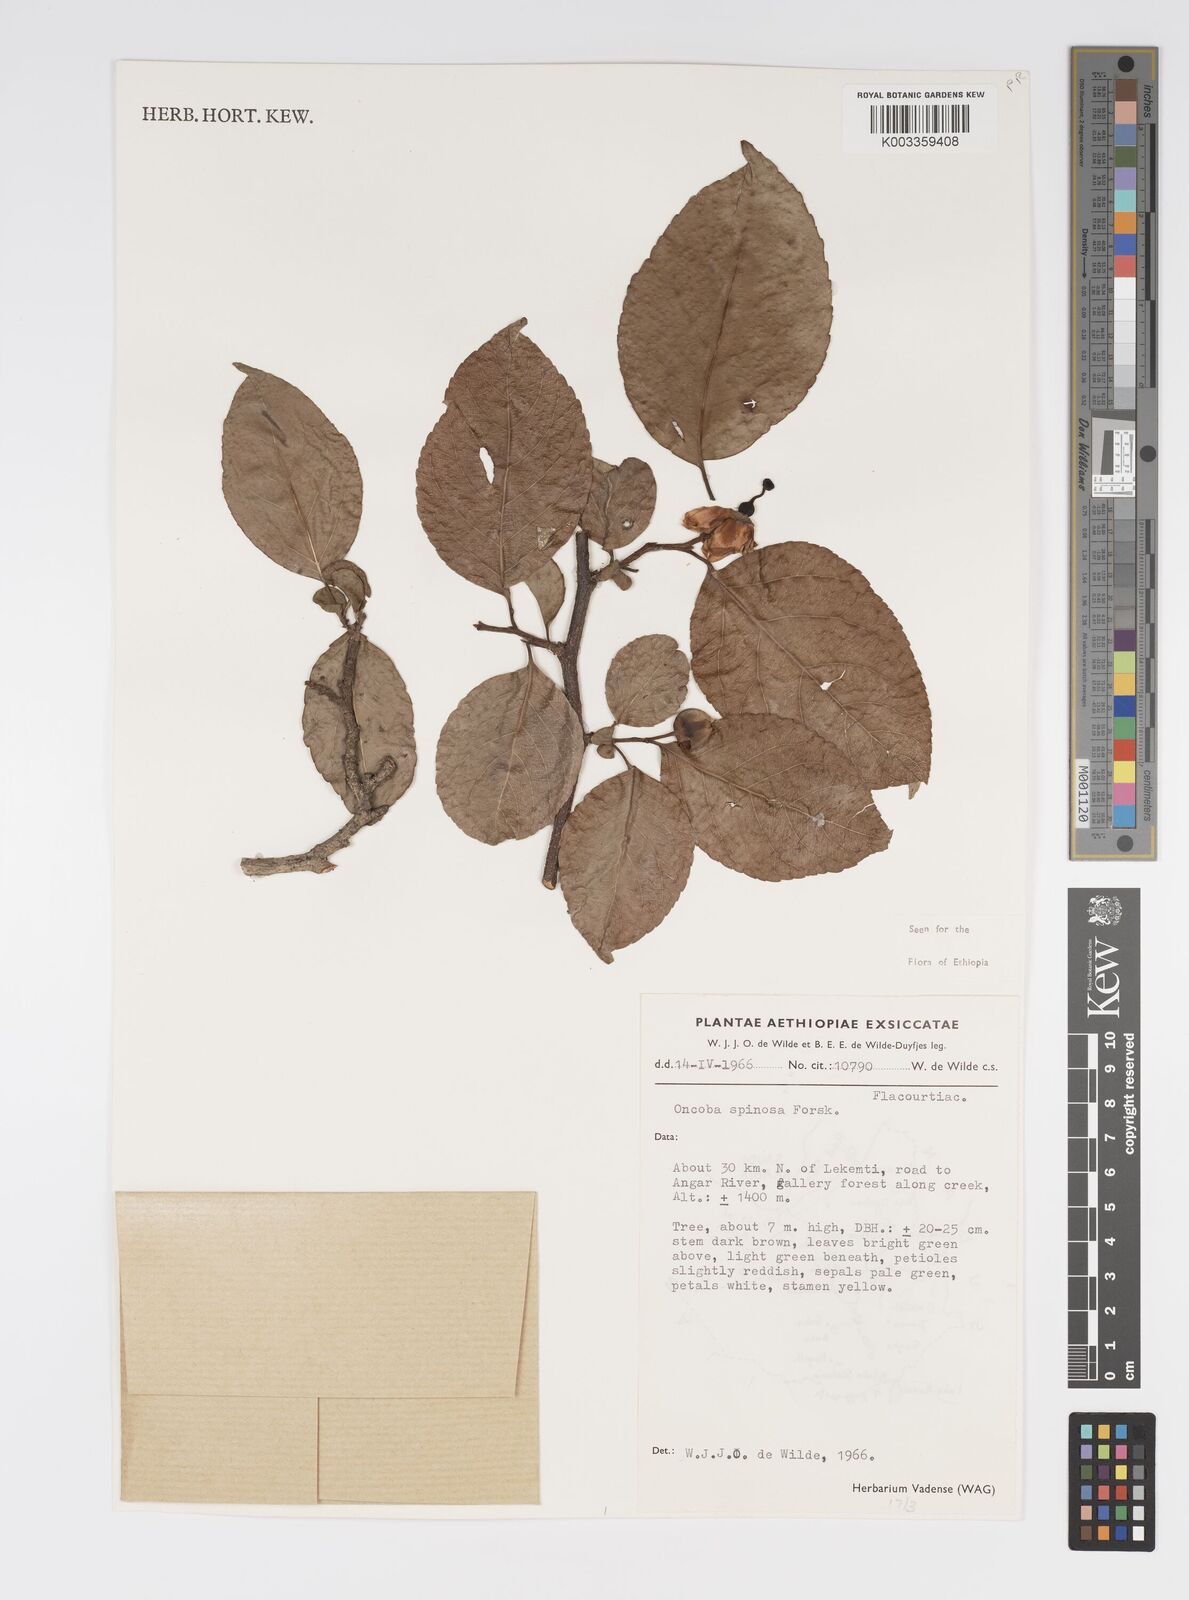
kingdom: Plantae
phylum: Tracheophyta
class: Magnoliopsida
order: Malpighiales
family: Salicaceae
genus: Oncoba
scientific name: Oncoba spinosa
